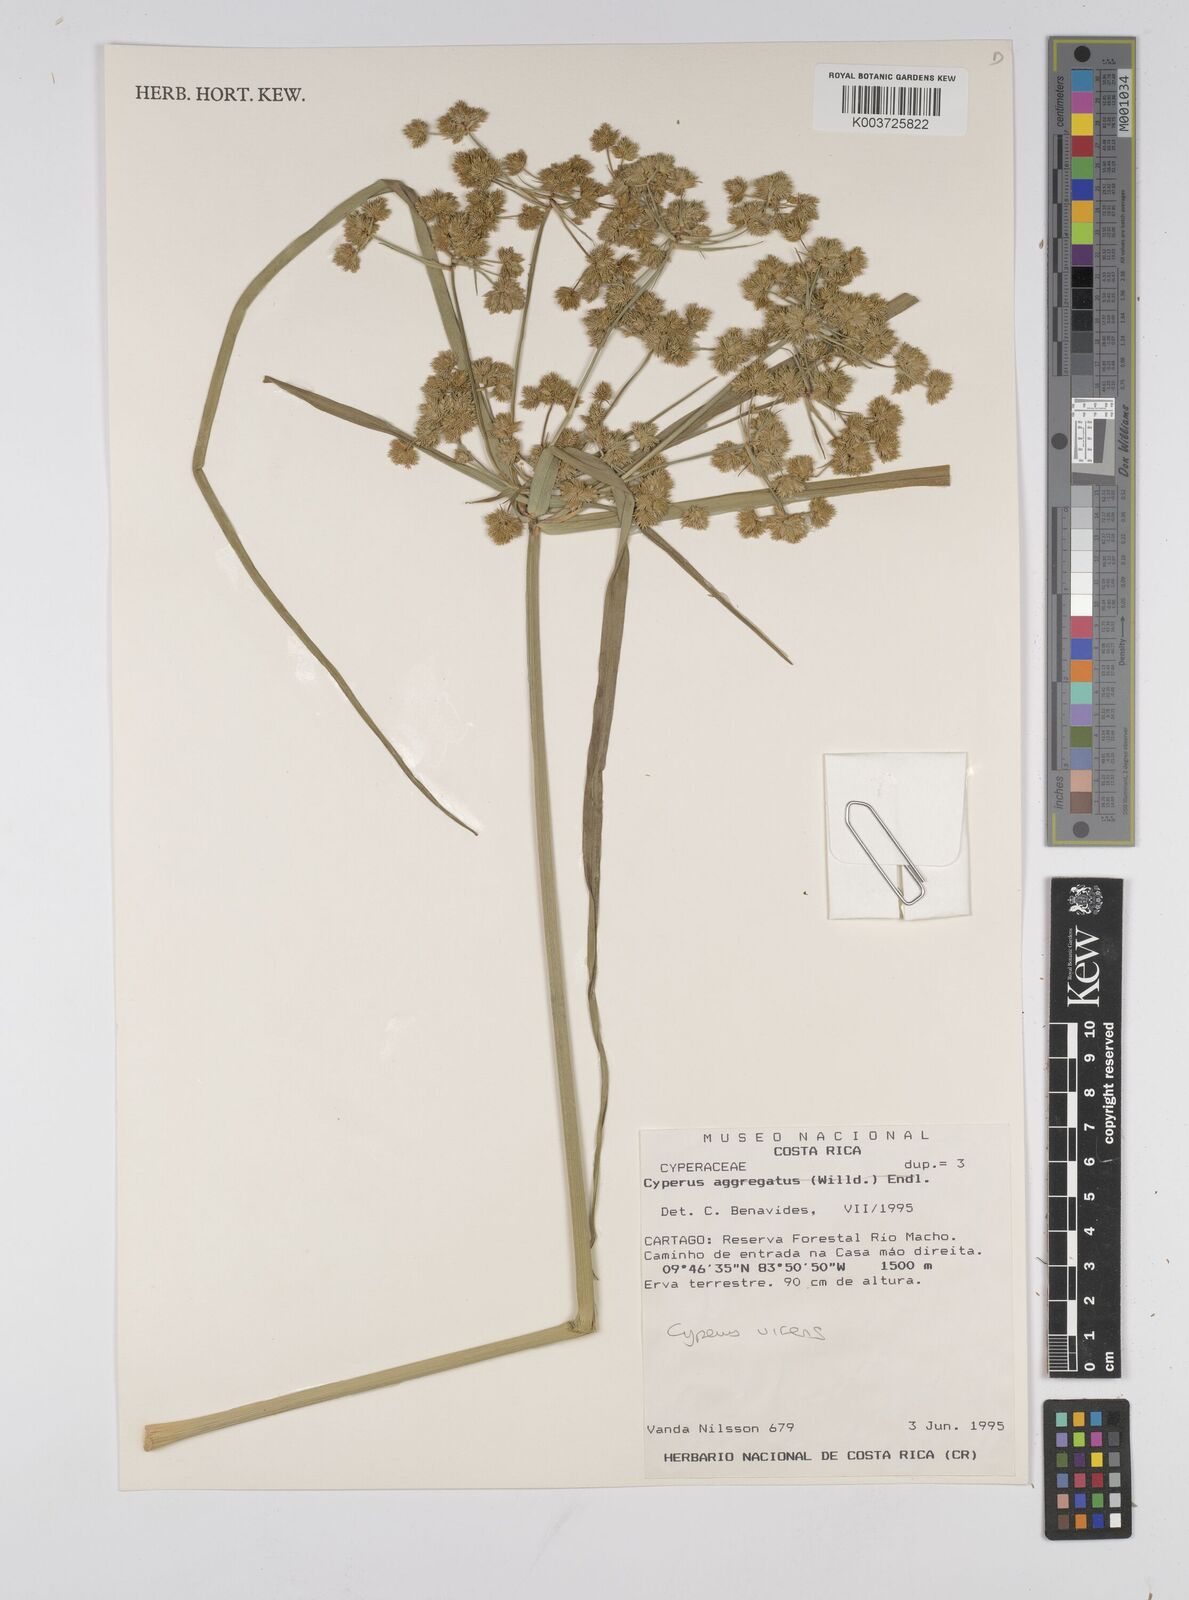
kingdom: Plantae
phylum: Tracheophyta
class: Liliopsida
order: Poales
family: Cyperaceae
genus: Cyperus
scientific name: Cyperus virens
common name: Green flatsedge
